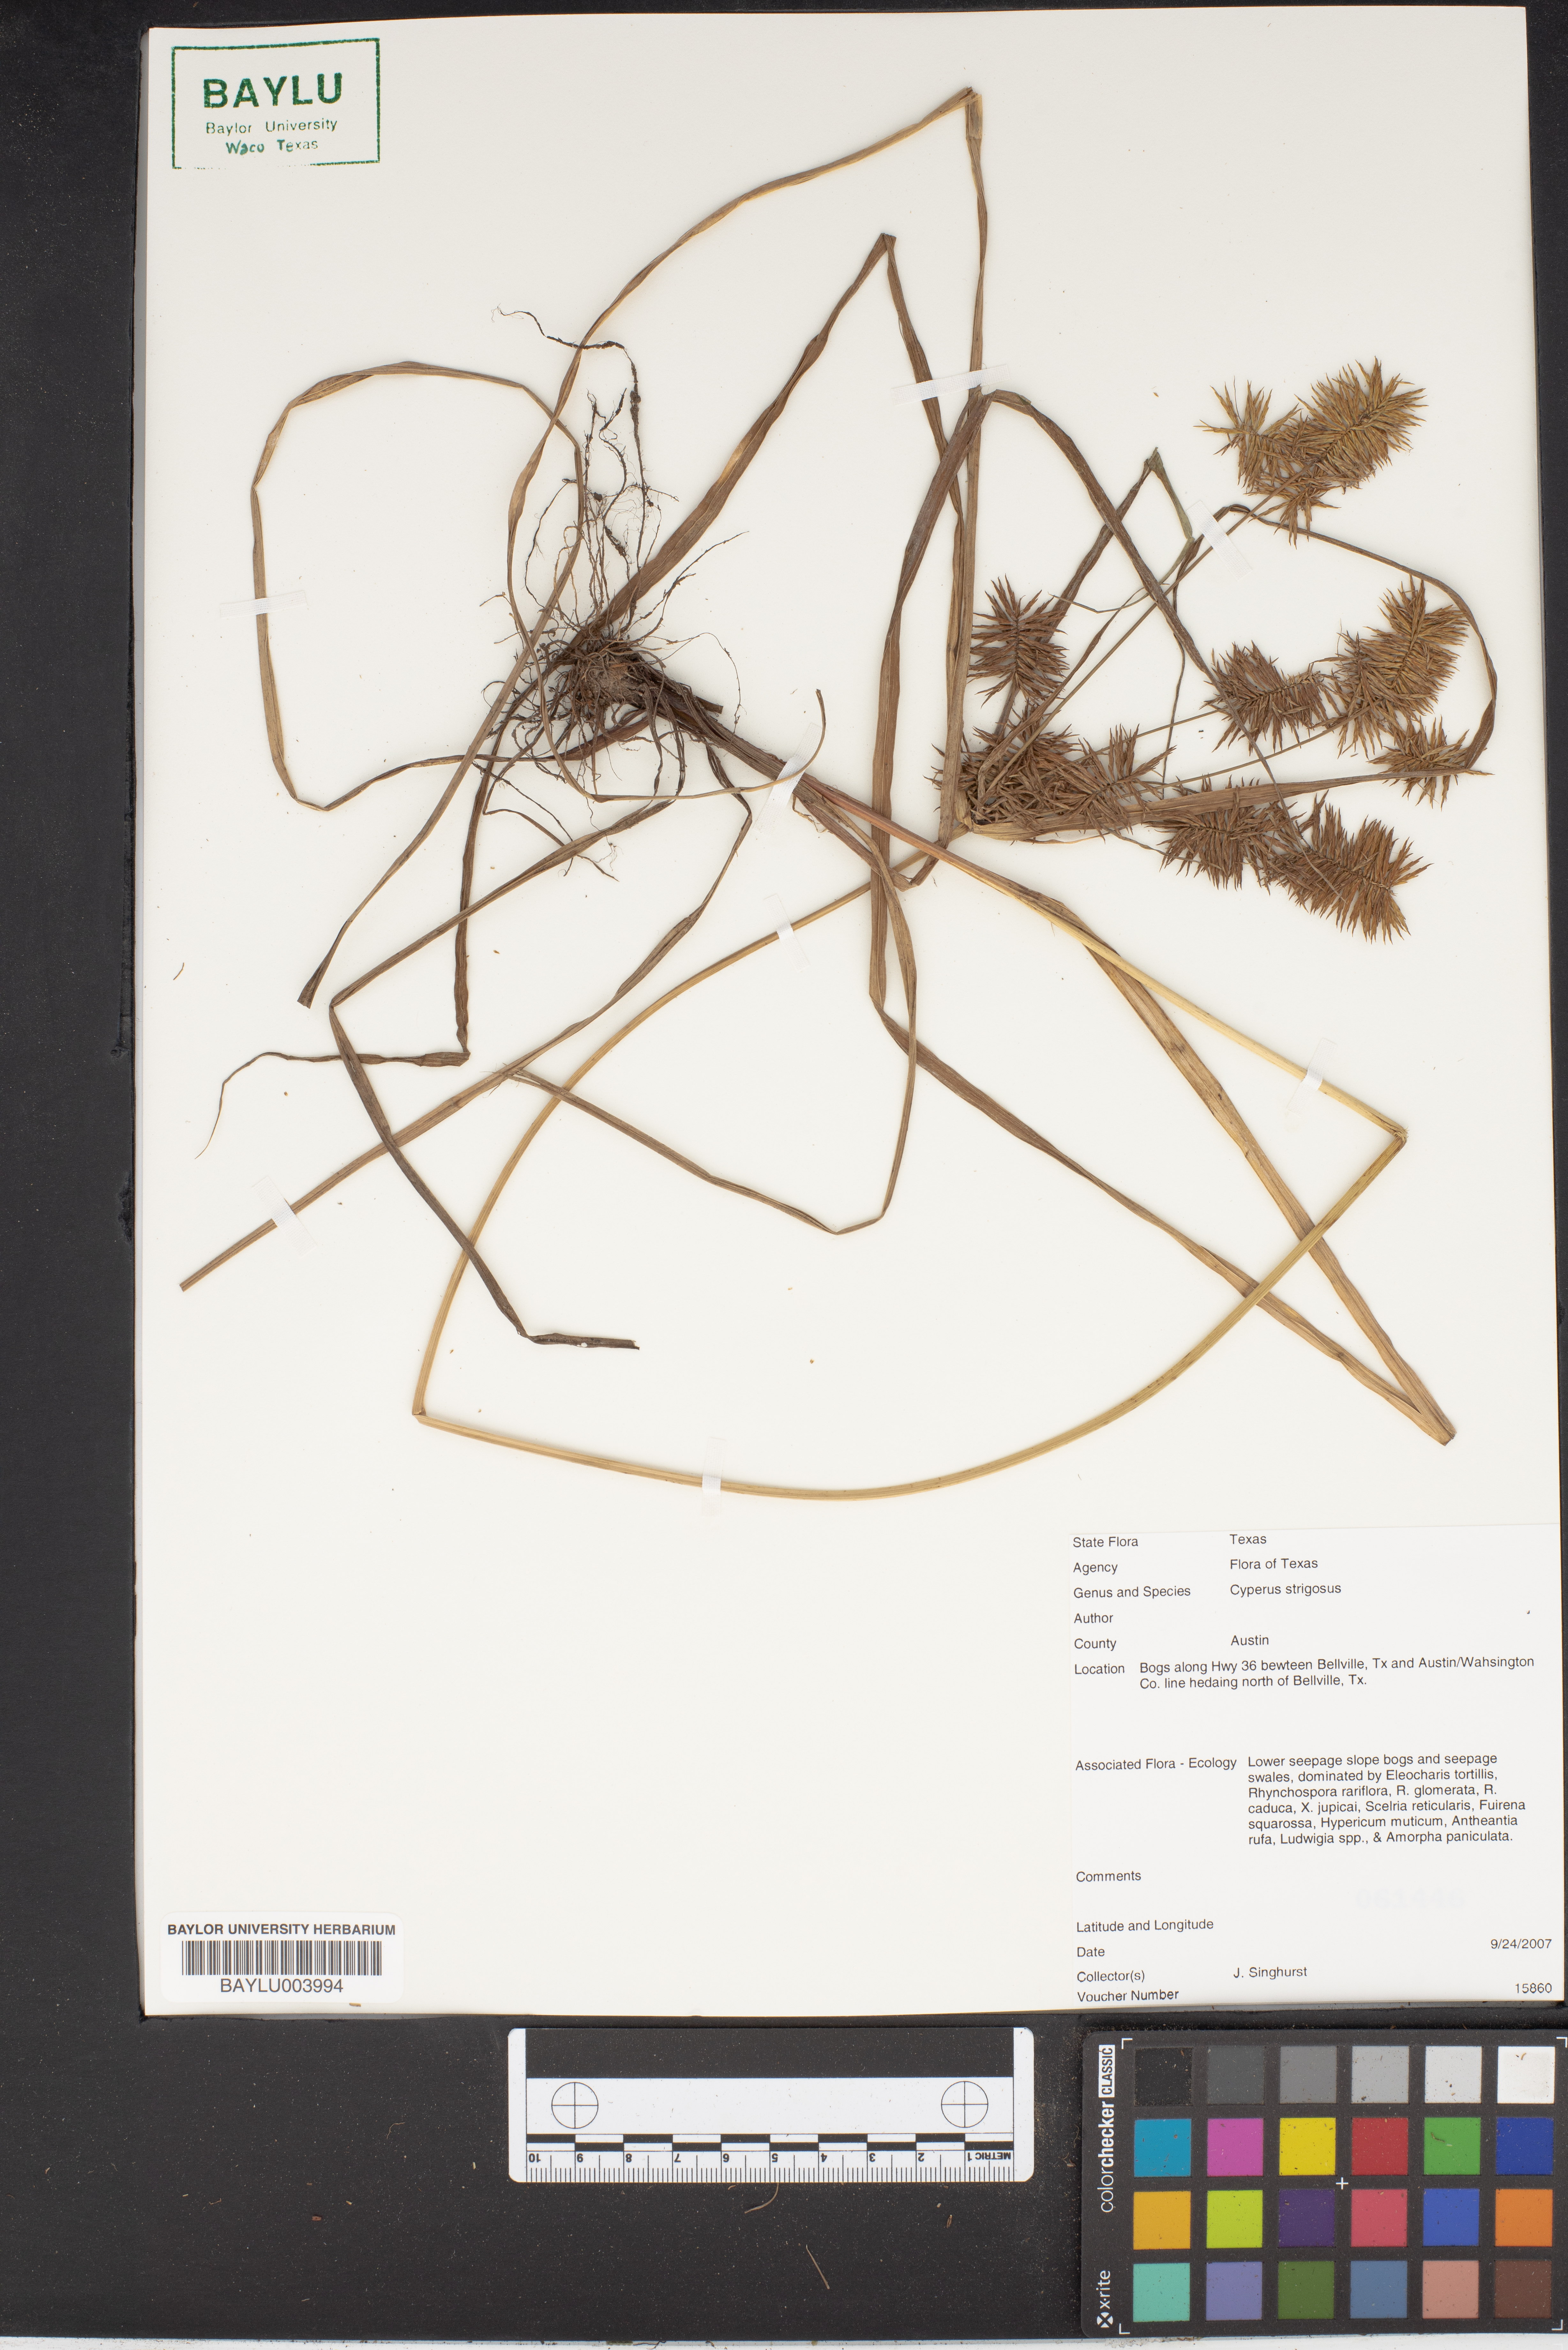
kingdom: Plantae
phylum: Tracheophyta
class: Liliopsida
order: Poales
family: Cyperaceae
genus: Cyperus
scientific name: Cyperus strigosus
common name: False nutsedge
